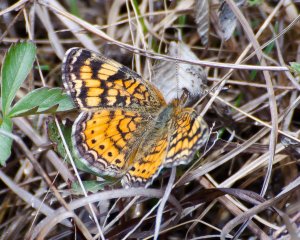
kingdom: Animalia
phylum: Arthropoda
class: Insecta
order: Lepidoptera
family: Nymphalidae
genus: Phyciodes
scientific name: Phyciodes tharos
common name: Pearl Crescent
